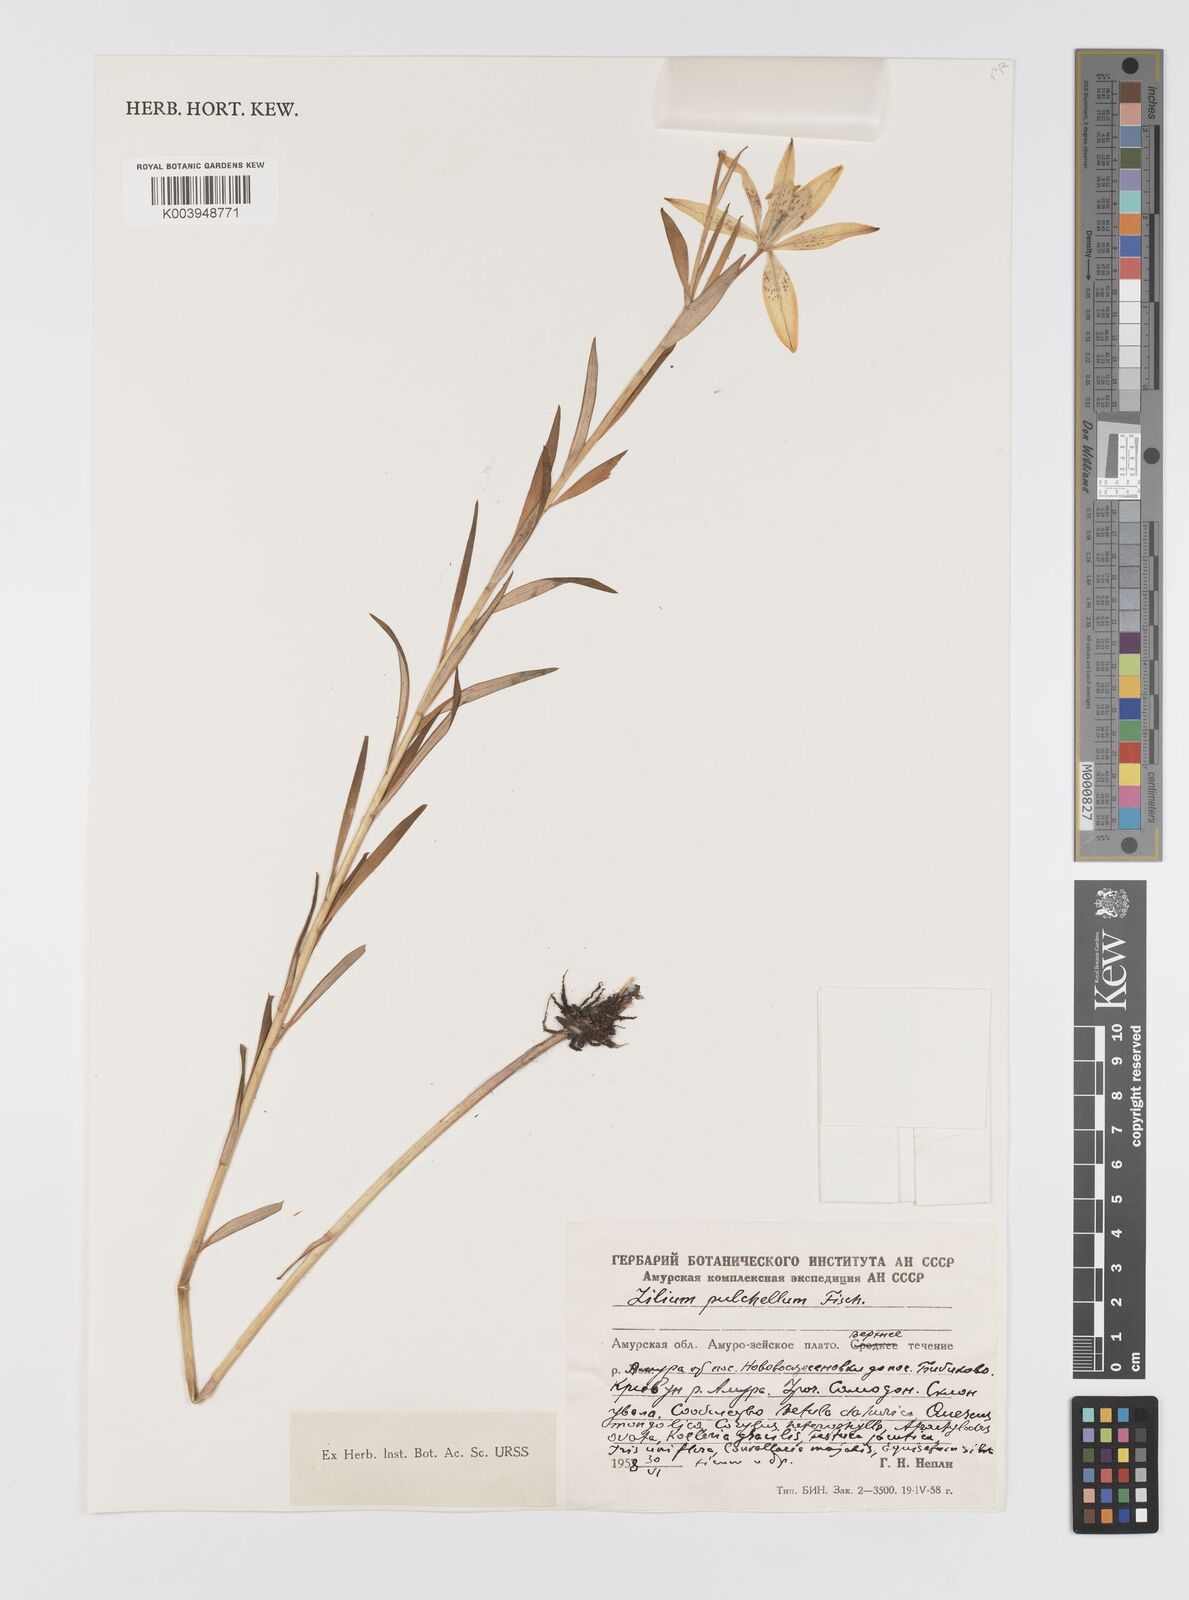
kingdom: Plantae
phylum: Tracheophyta
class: Liliopsida
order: Liliales
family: Liliaceae
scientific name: Liliaceae
